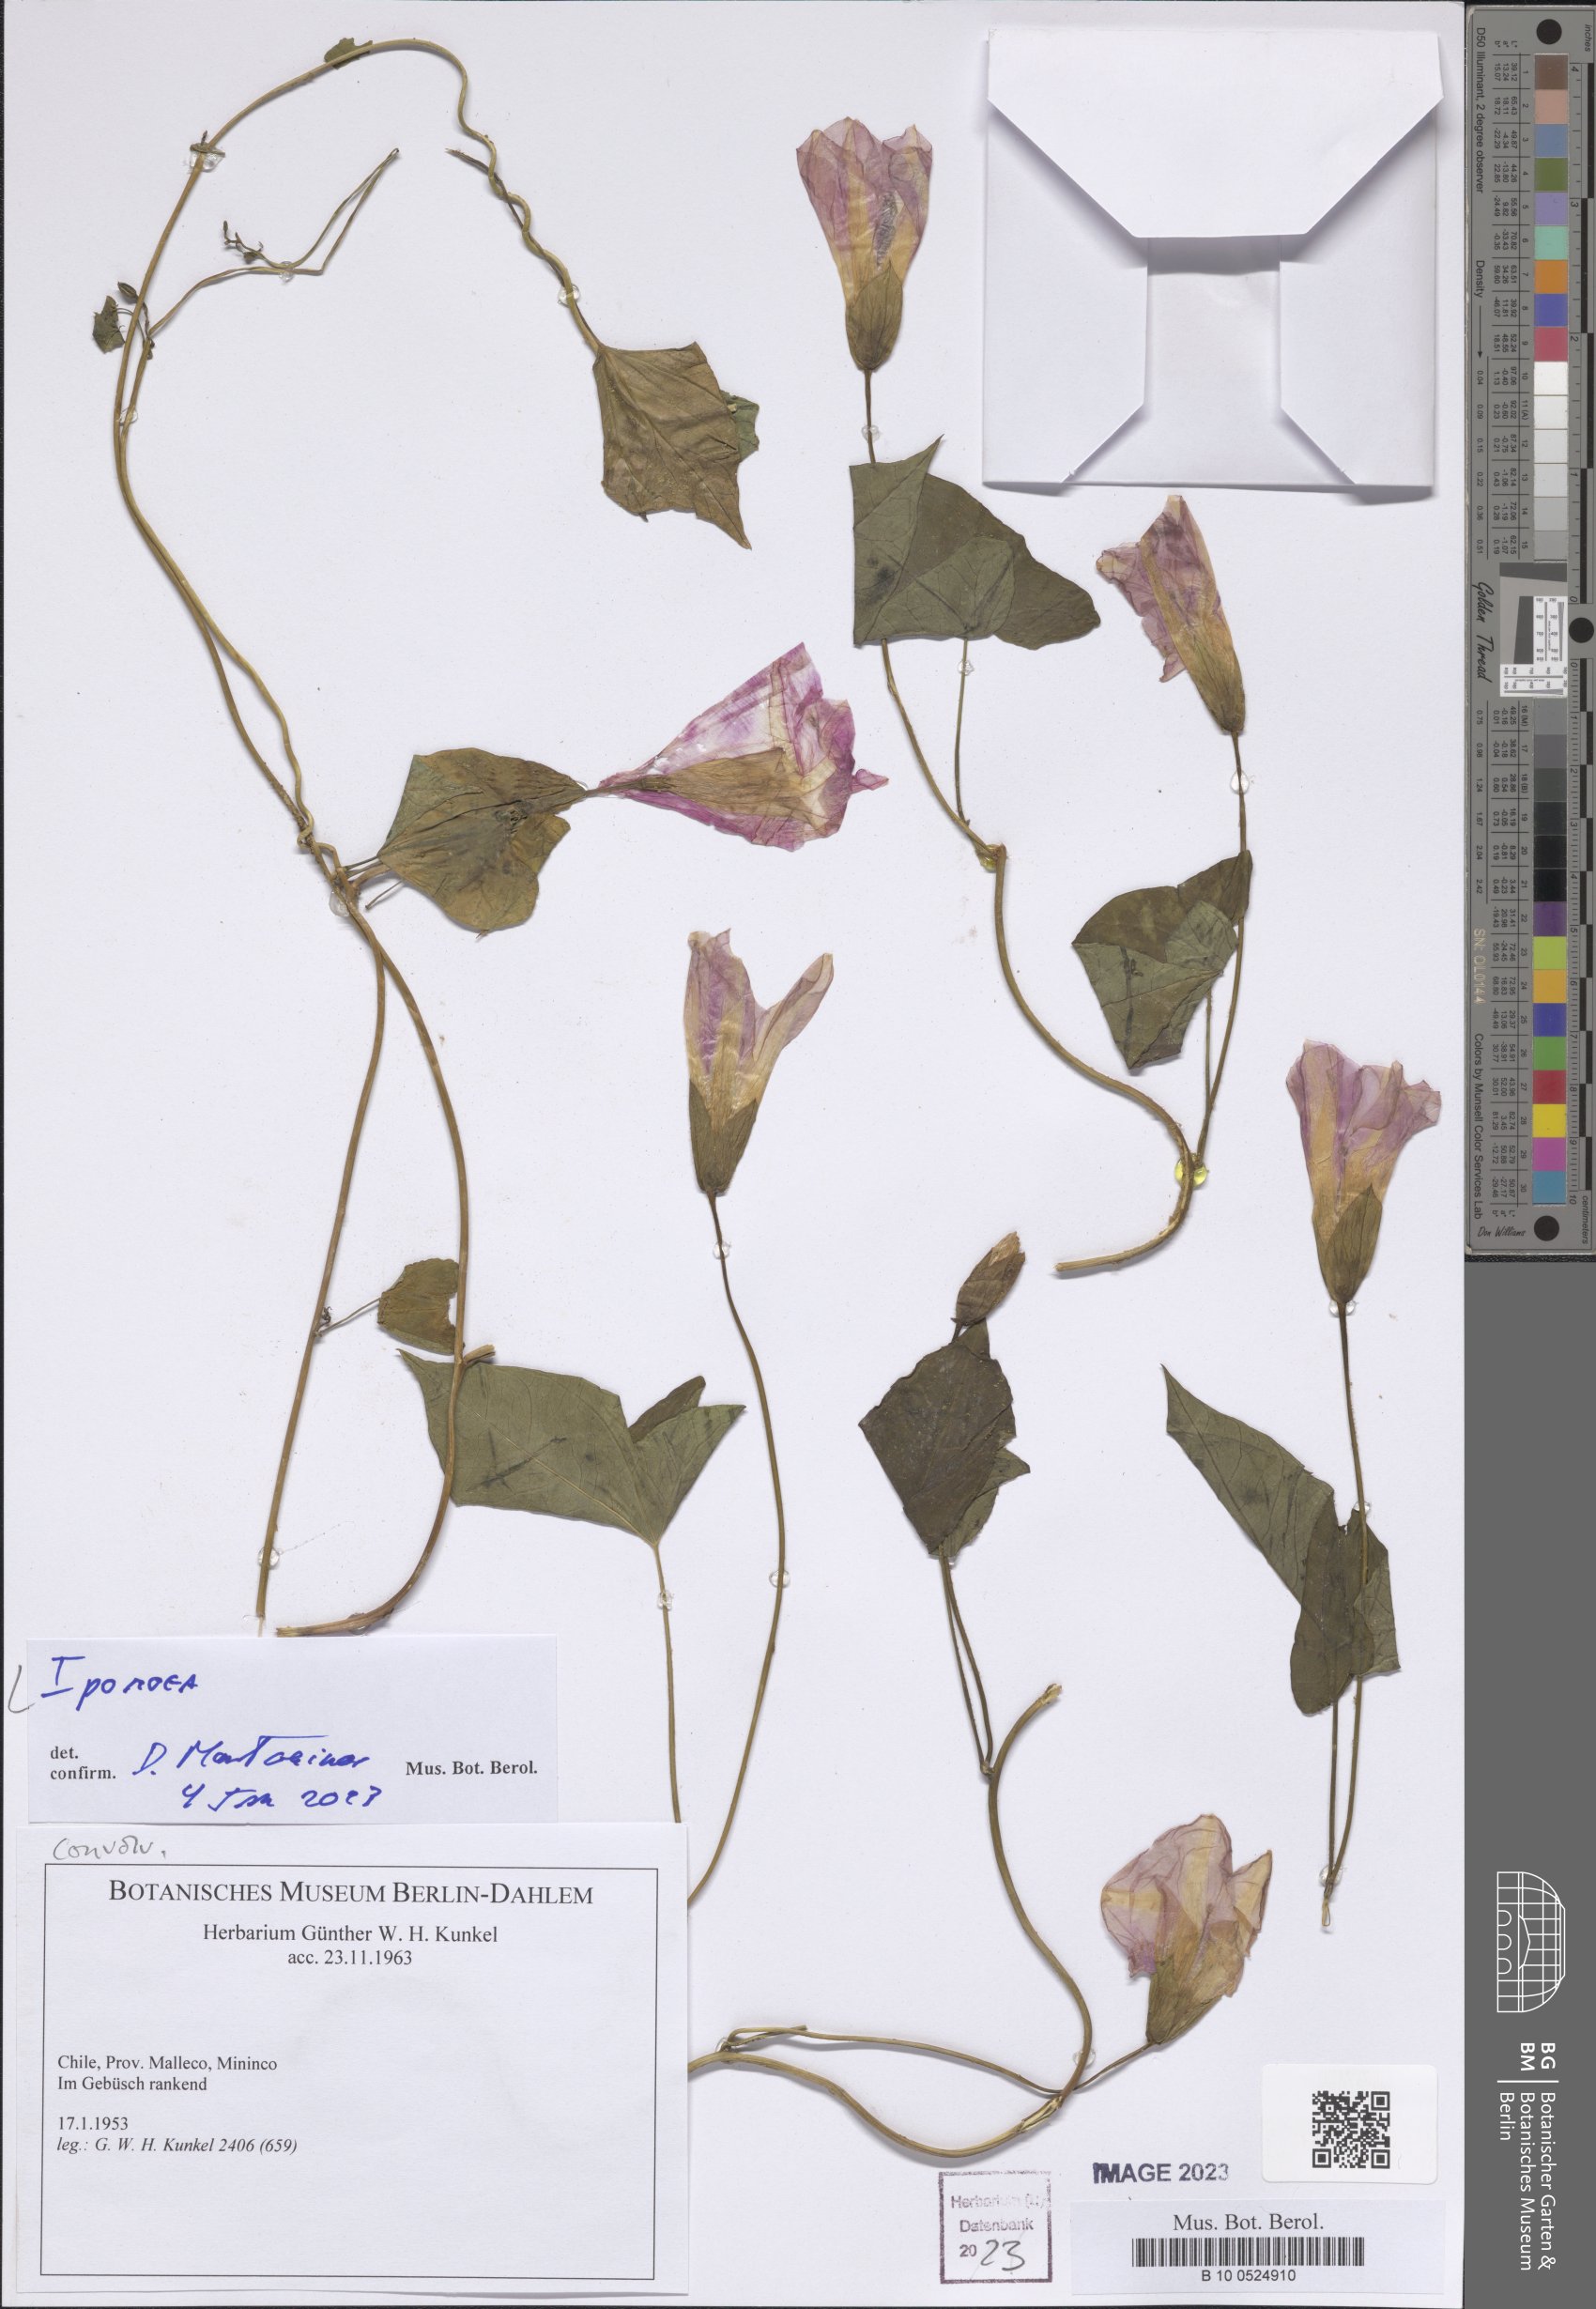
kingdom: Plantae
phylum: Tracheophyta
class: Magnoliopsida
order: Solanales
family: Convolvulaceae
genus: Ipomoea
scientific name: Ipomoea
